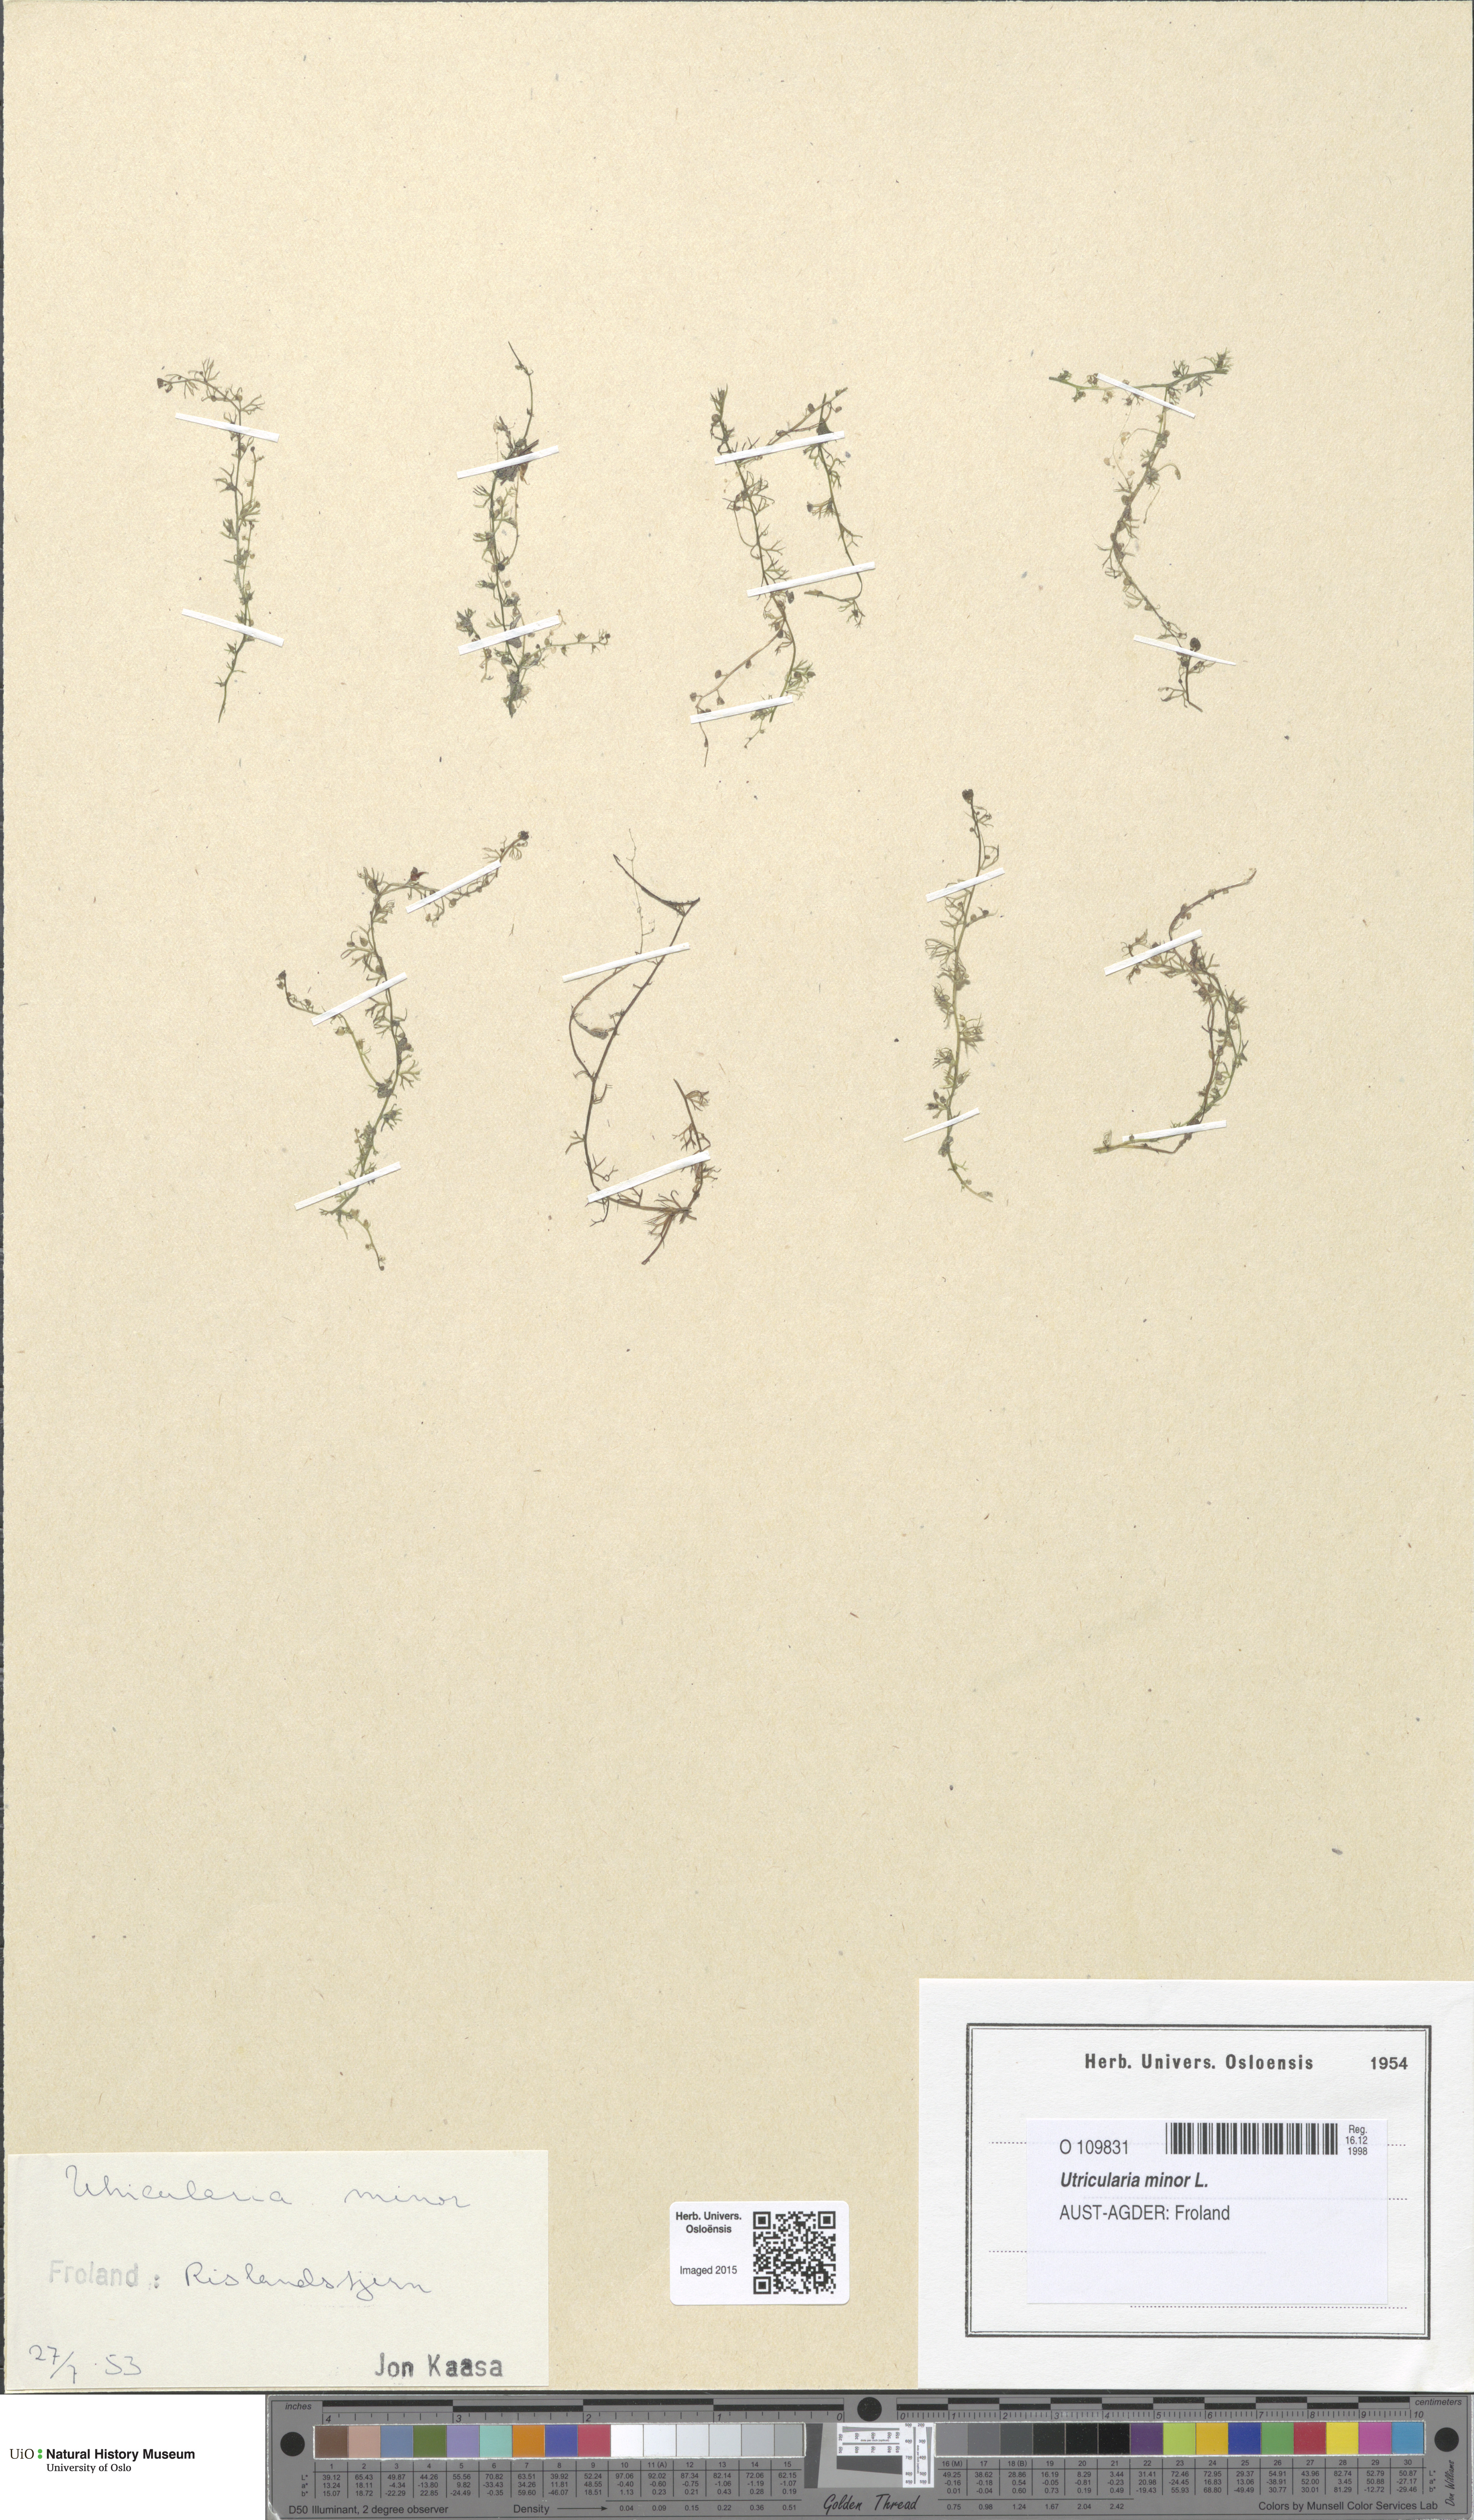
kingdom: Plantae
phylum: Tracheophyta
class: Magnoliopsida
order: Lamiales
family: Lentibulariaceae
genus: Utricularia
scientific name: Utricularia minor
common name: Lesser bladderwort
